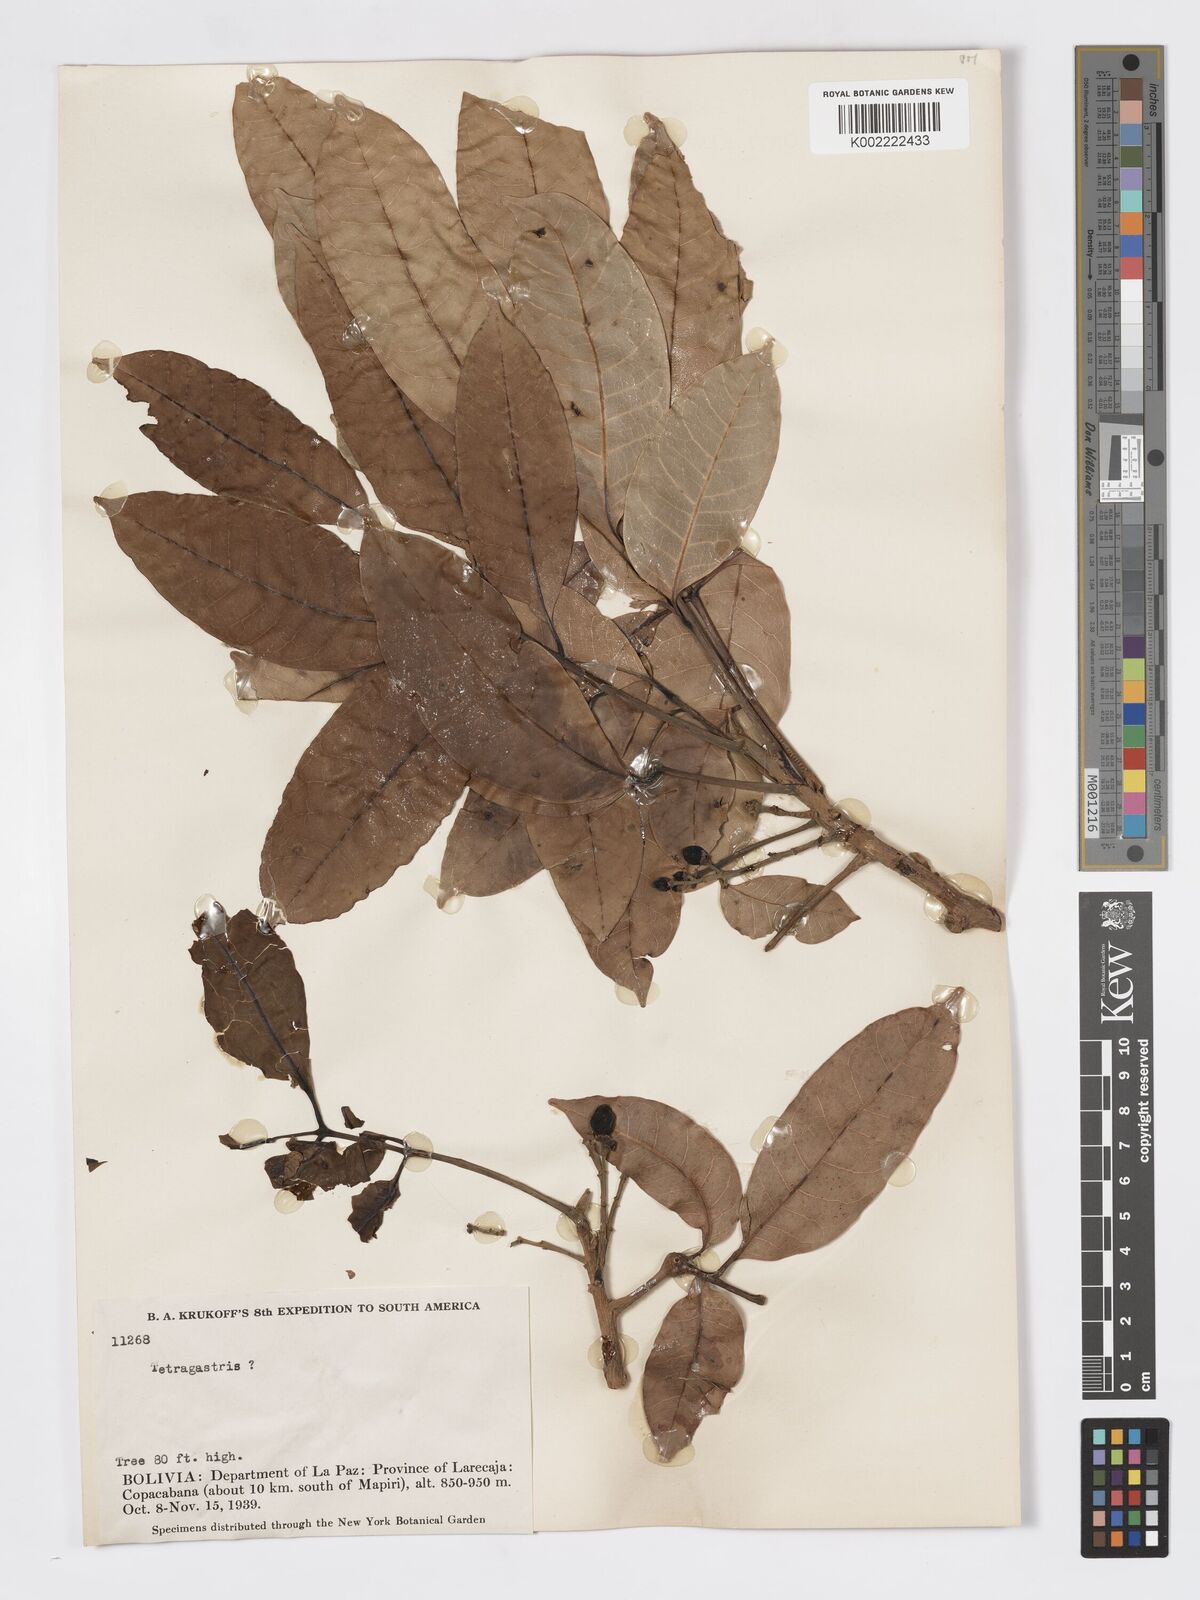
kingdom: Plantae
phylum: Tracheophyta
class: Magnoliopsida
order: Sapindales
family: Burseraceae
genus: Tetragastris
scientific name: Tetragastris
